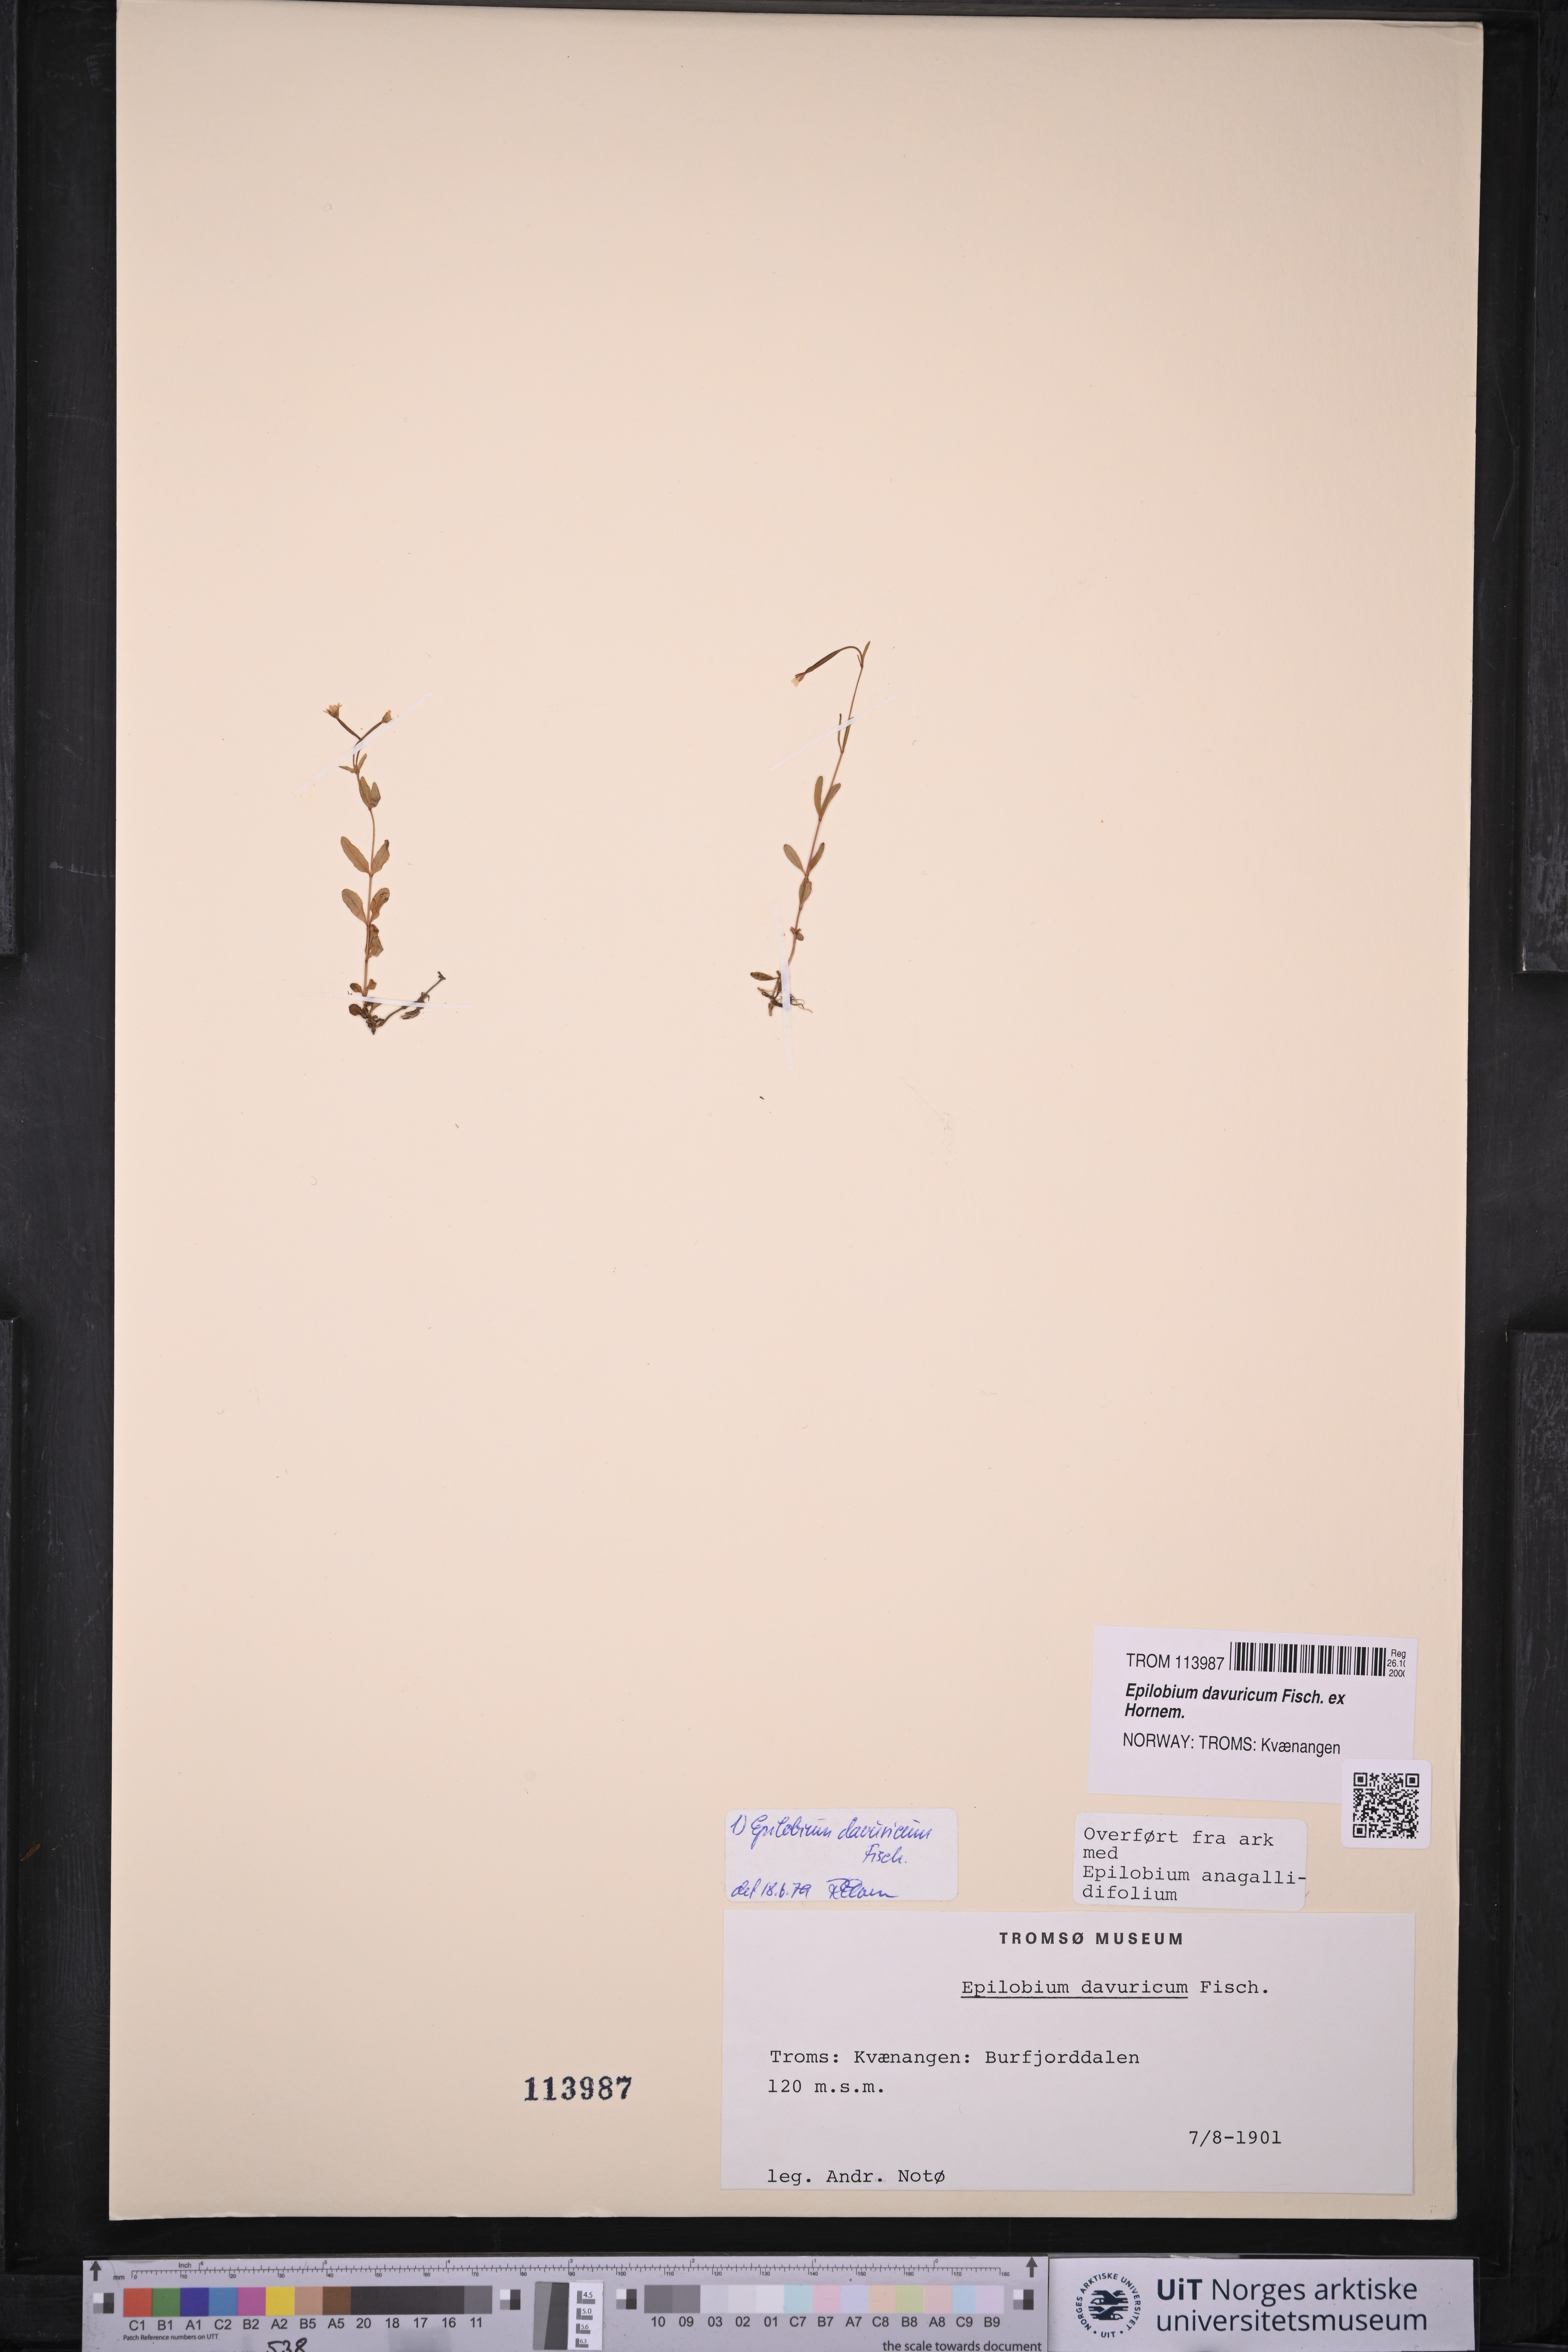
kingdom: Plantae
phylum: Tracheophyta
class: Magnoliopsida
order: Myrtales
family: Onagraceae
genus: Epilobium
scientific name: Epilobium davuricum
